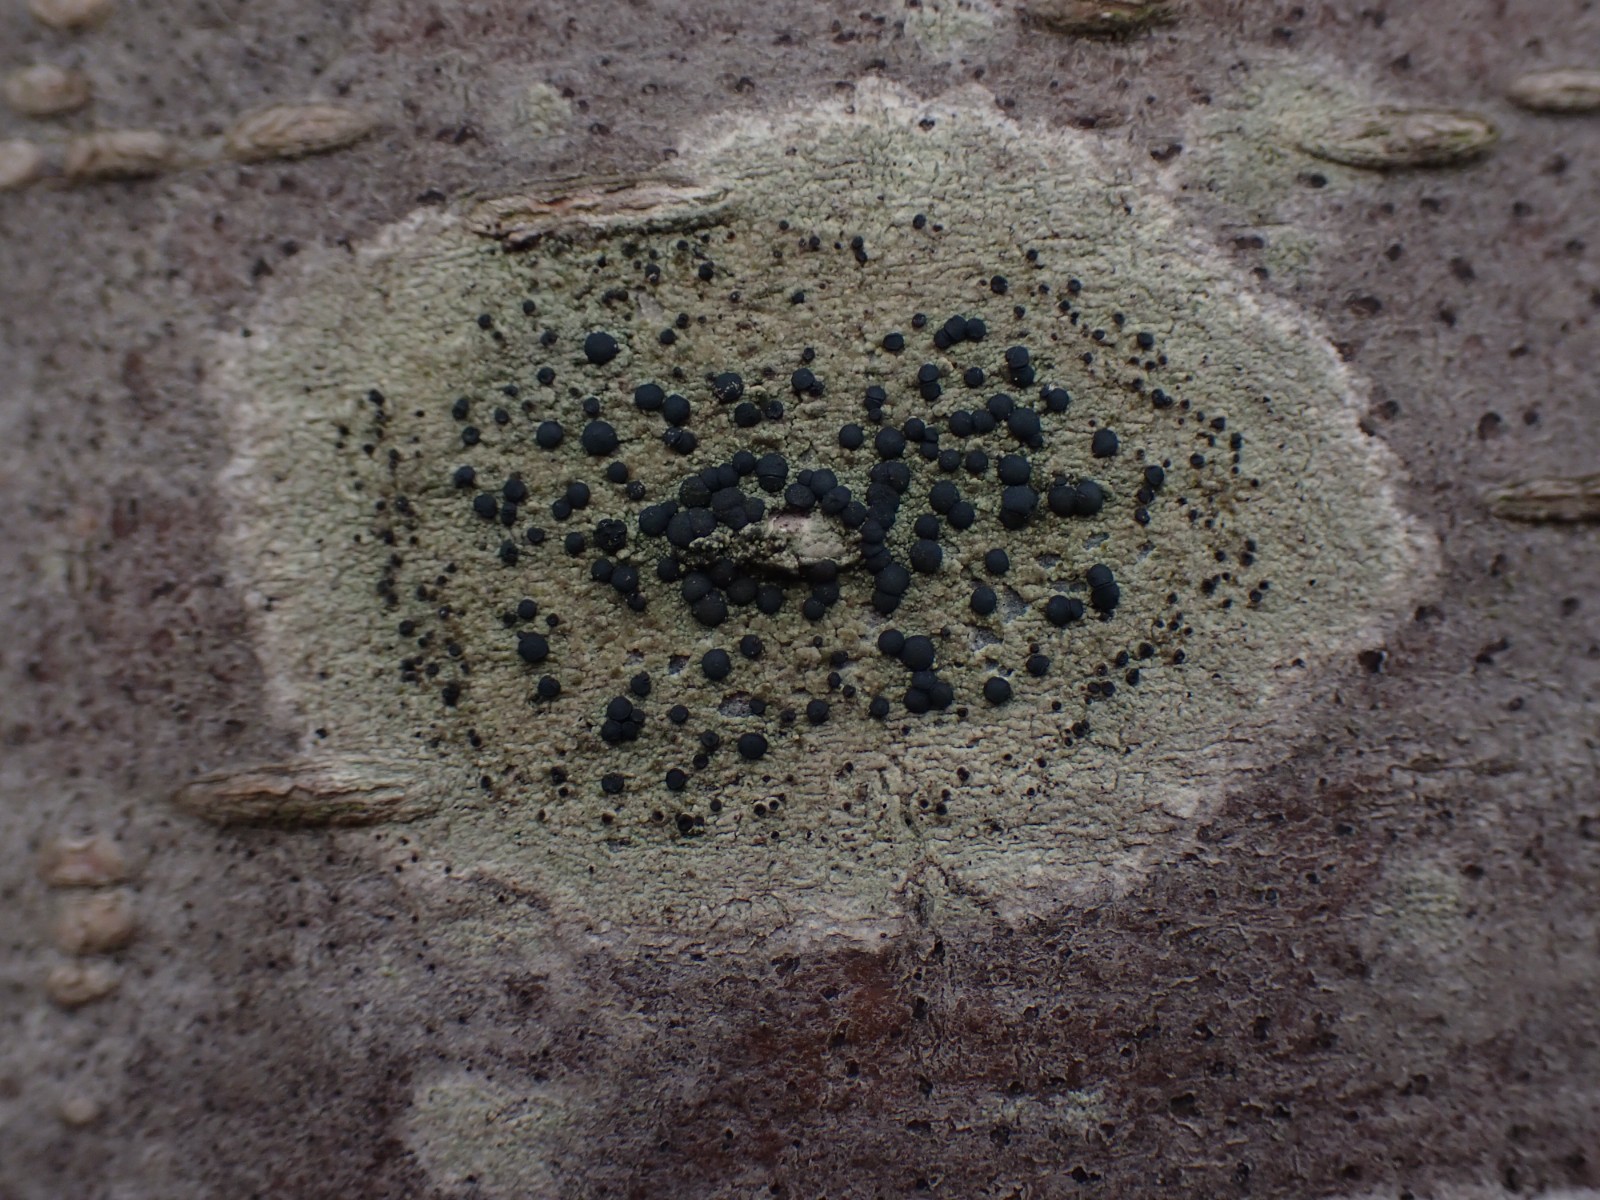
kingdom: Fungi
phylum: Ascomycota
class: Lecanoromycetes
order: Lecanorales
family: Lecanoraceae
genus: Lecidella
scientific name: Lecidella elaeochroma
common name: grågrøn skivelav
